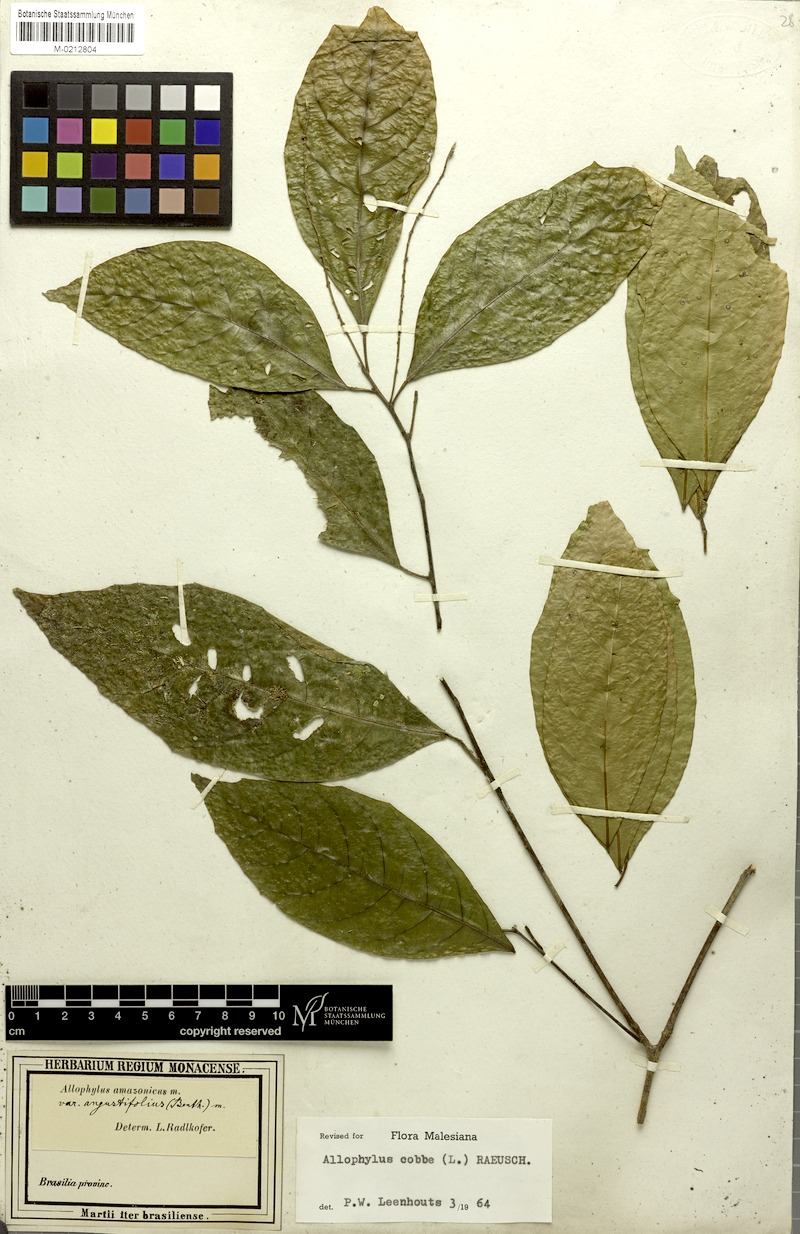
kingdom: Plantae
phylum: Tracheophyta
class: Magnoliopsida
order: Sapindales
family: Sapindaceae
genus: Allophylus
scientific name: Allophylus loretensis
